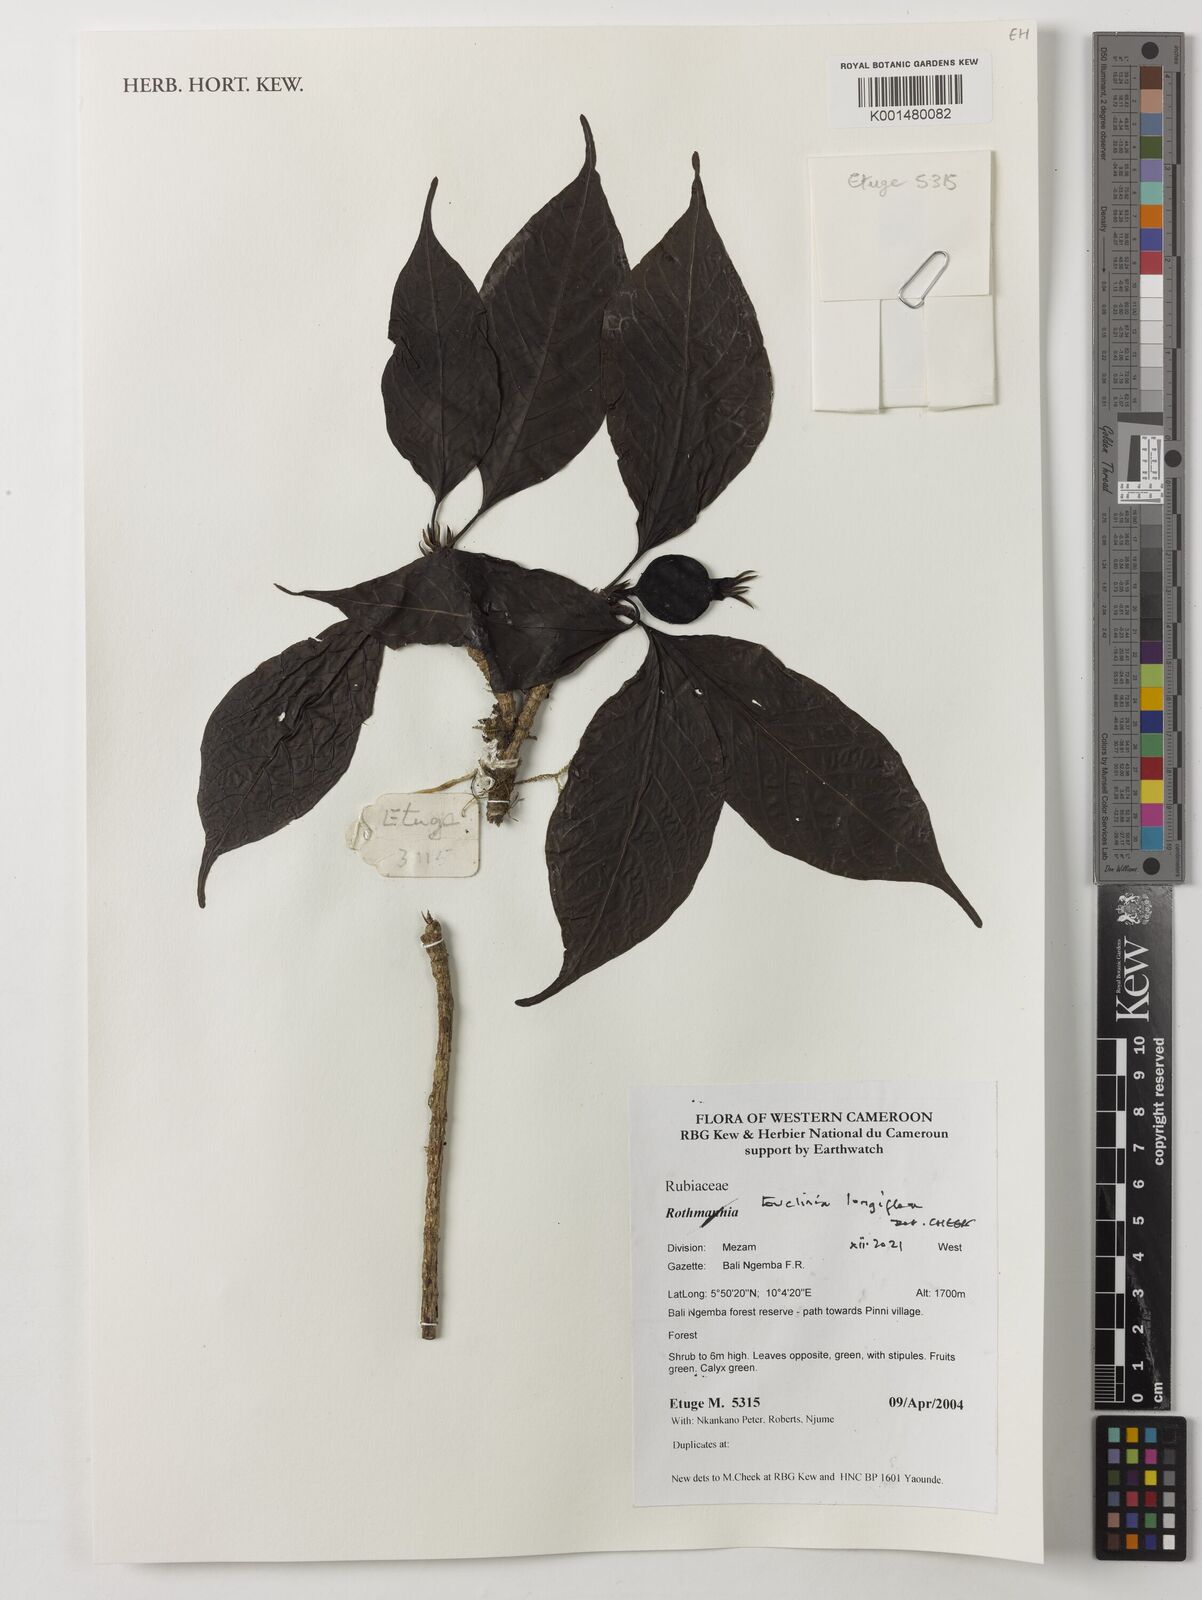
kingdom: Plantae
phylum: Tracheophyta
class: Magnoliopsida
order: Gentianales
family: Rubiaceae
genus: Euclinia
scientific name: Euclinia longiflora
